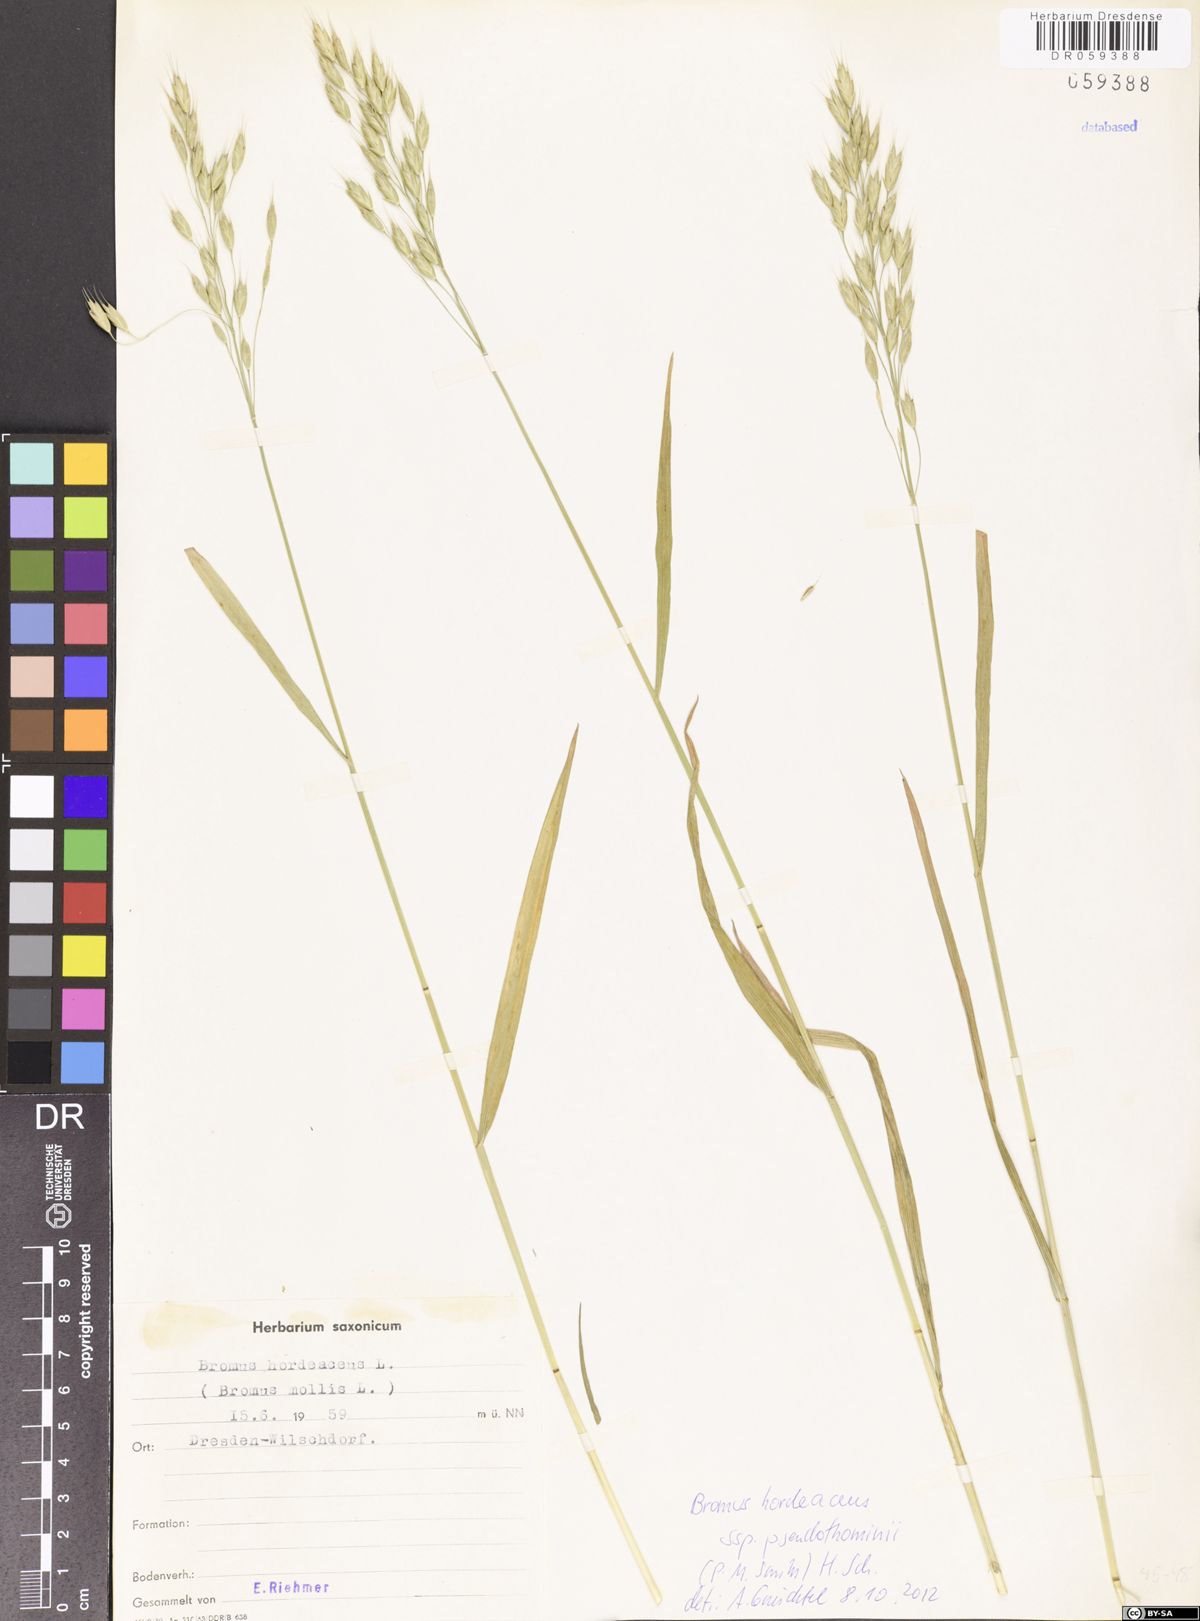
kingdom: Plantae
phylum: Tracheophyta
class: Liliopsida
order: Poales
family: Poaceae
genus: Bromus
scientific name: Bromus ferronii
